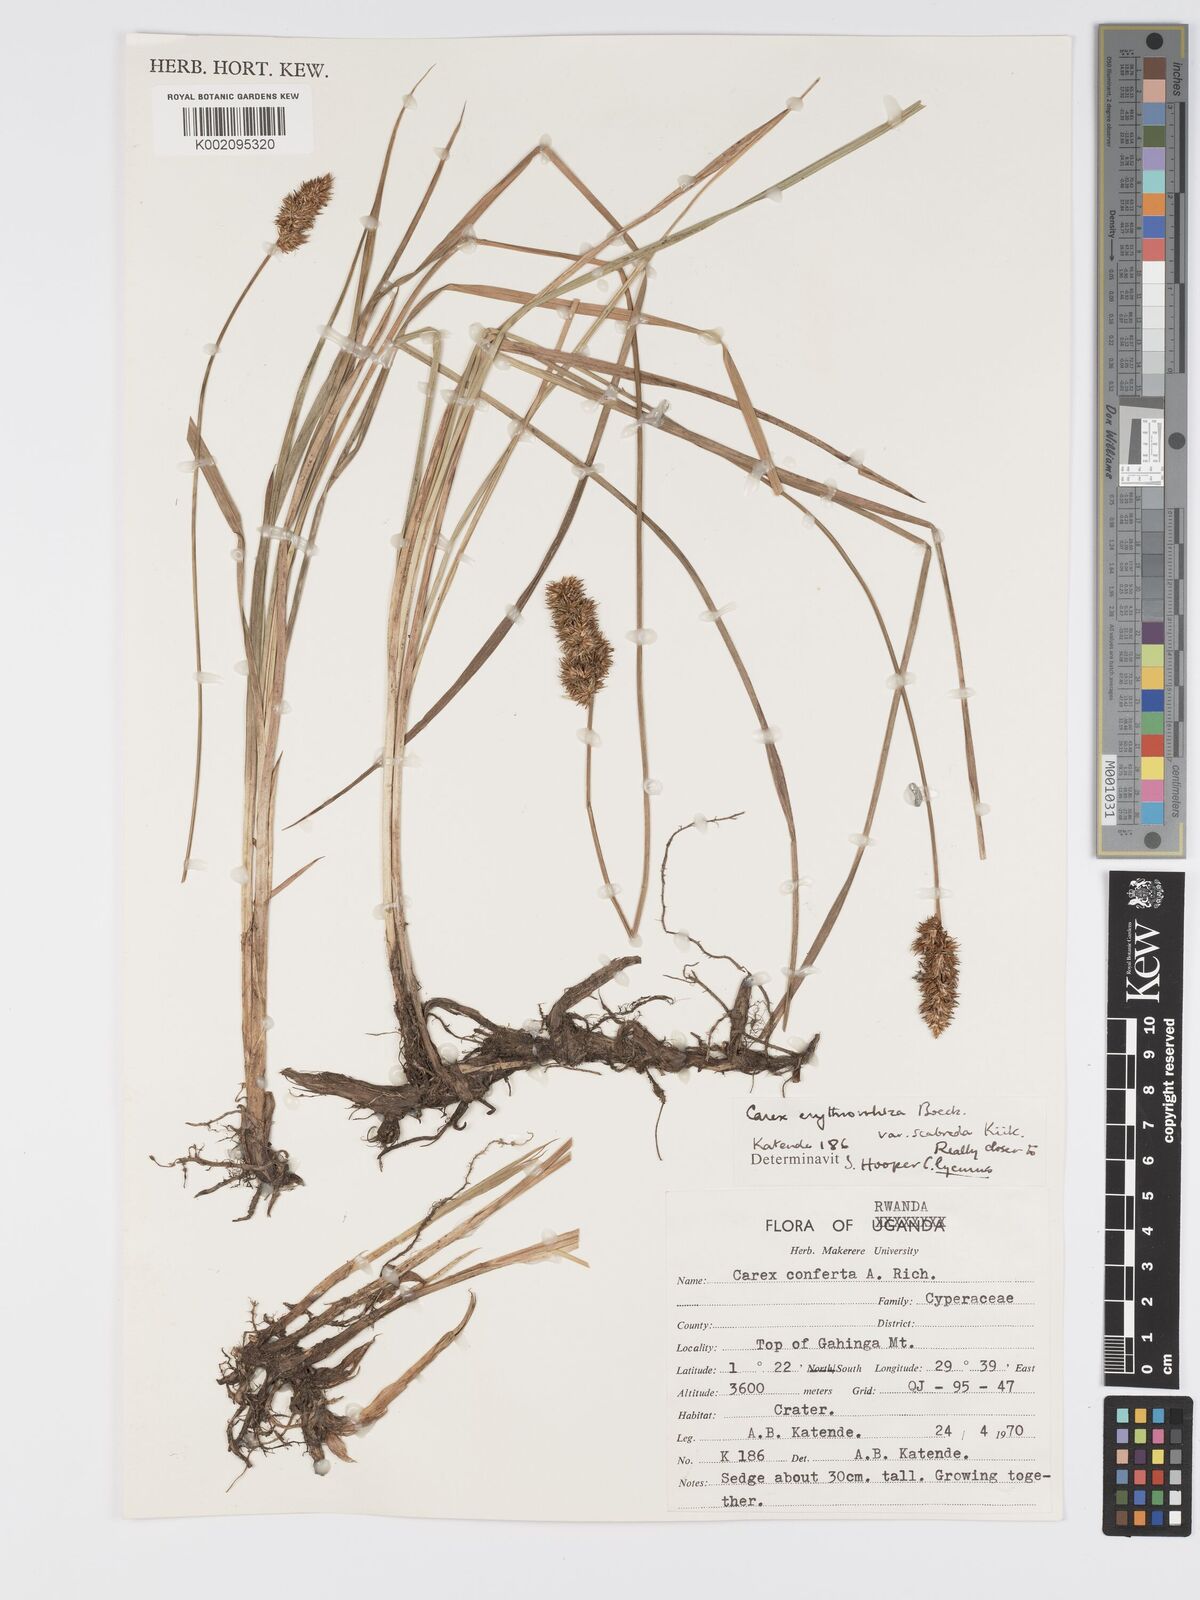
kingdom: Plantae
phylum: Tracheophyta
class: Liliopsida
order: Poales
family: Cyperaceae
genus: Carex
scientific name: Carex lycurus
